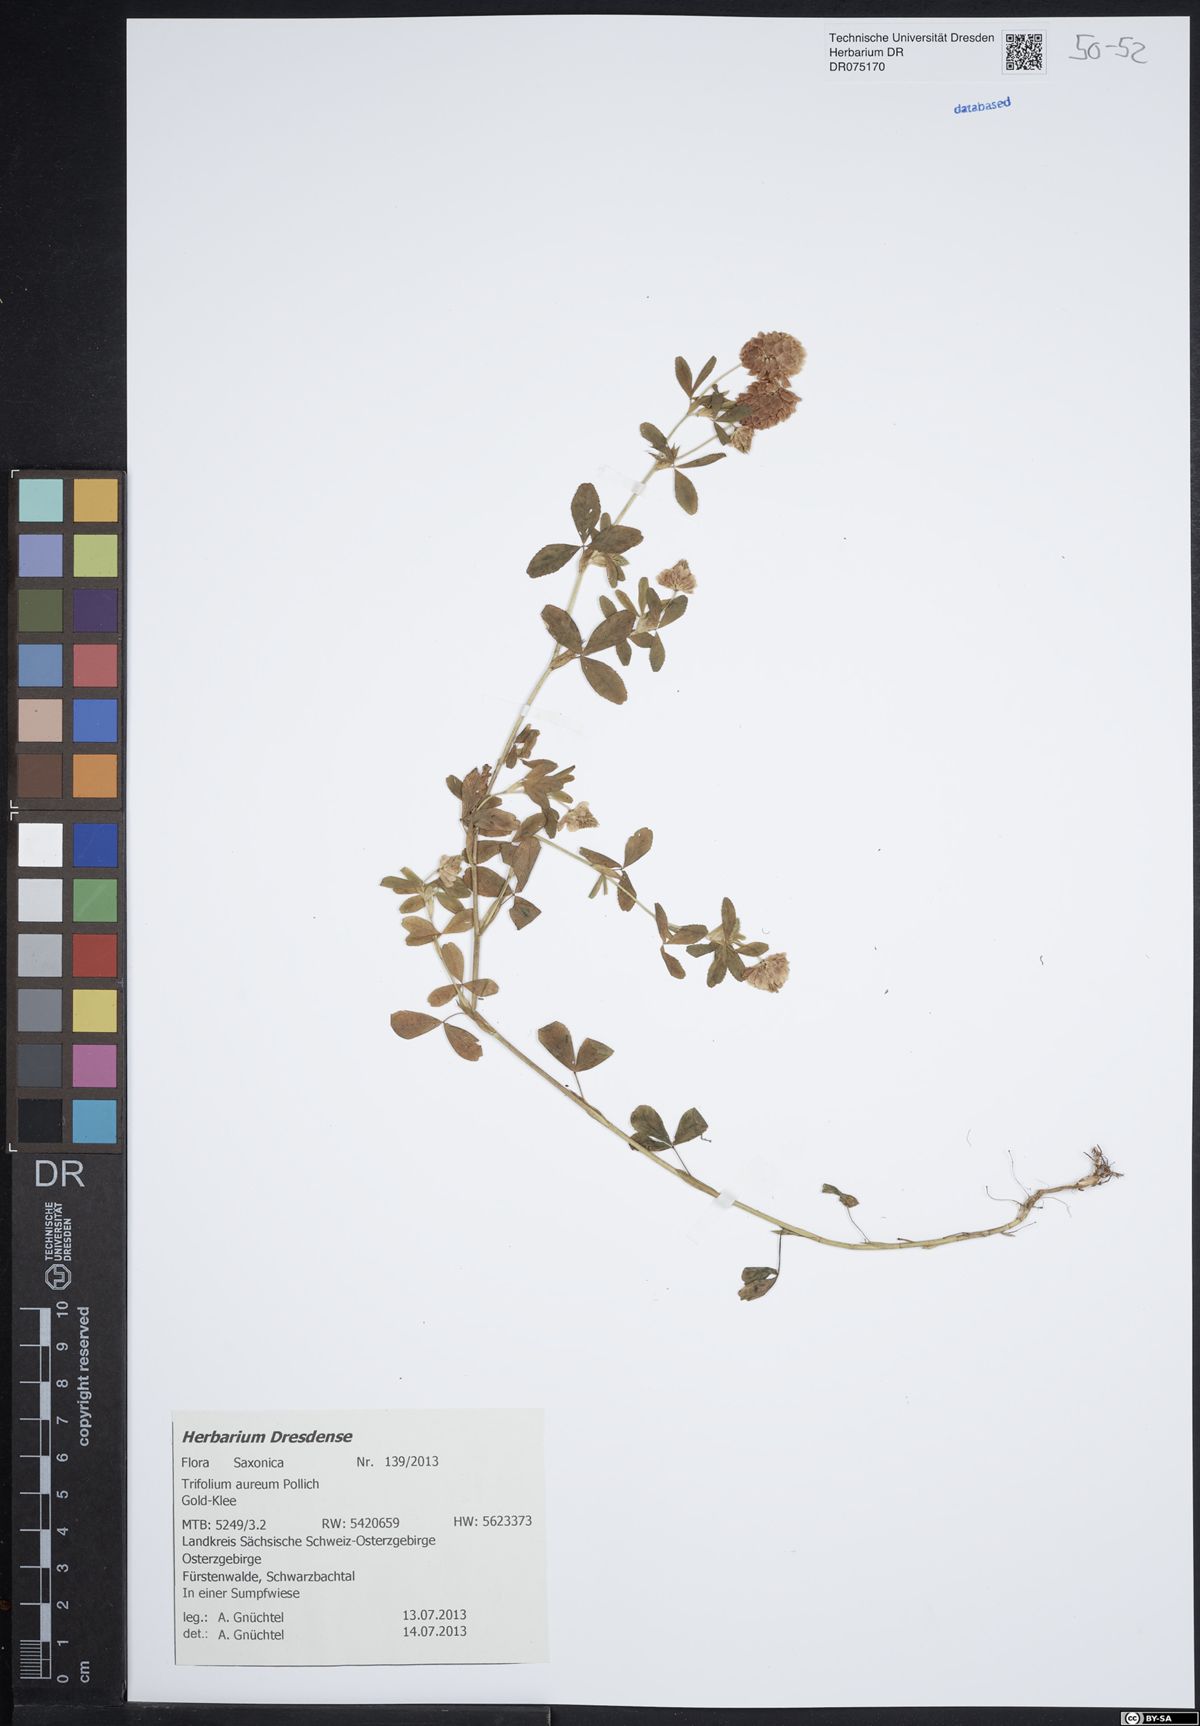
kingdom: Plantae
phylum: Tracheophyta
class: Magnoliopsida
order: Fabales
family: Fabaceae
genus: Trifolium
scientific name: Trifolium aureum
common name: Golden clover
